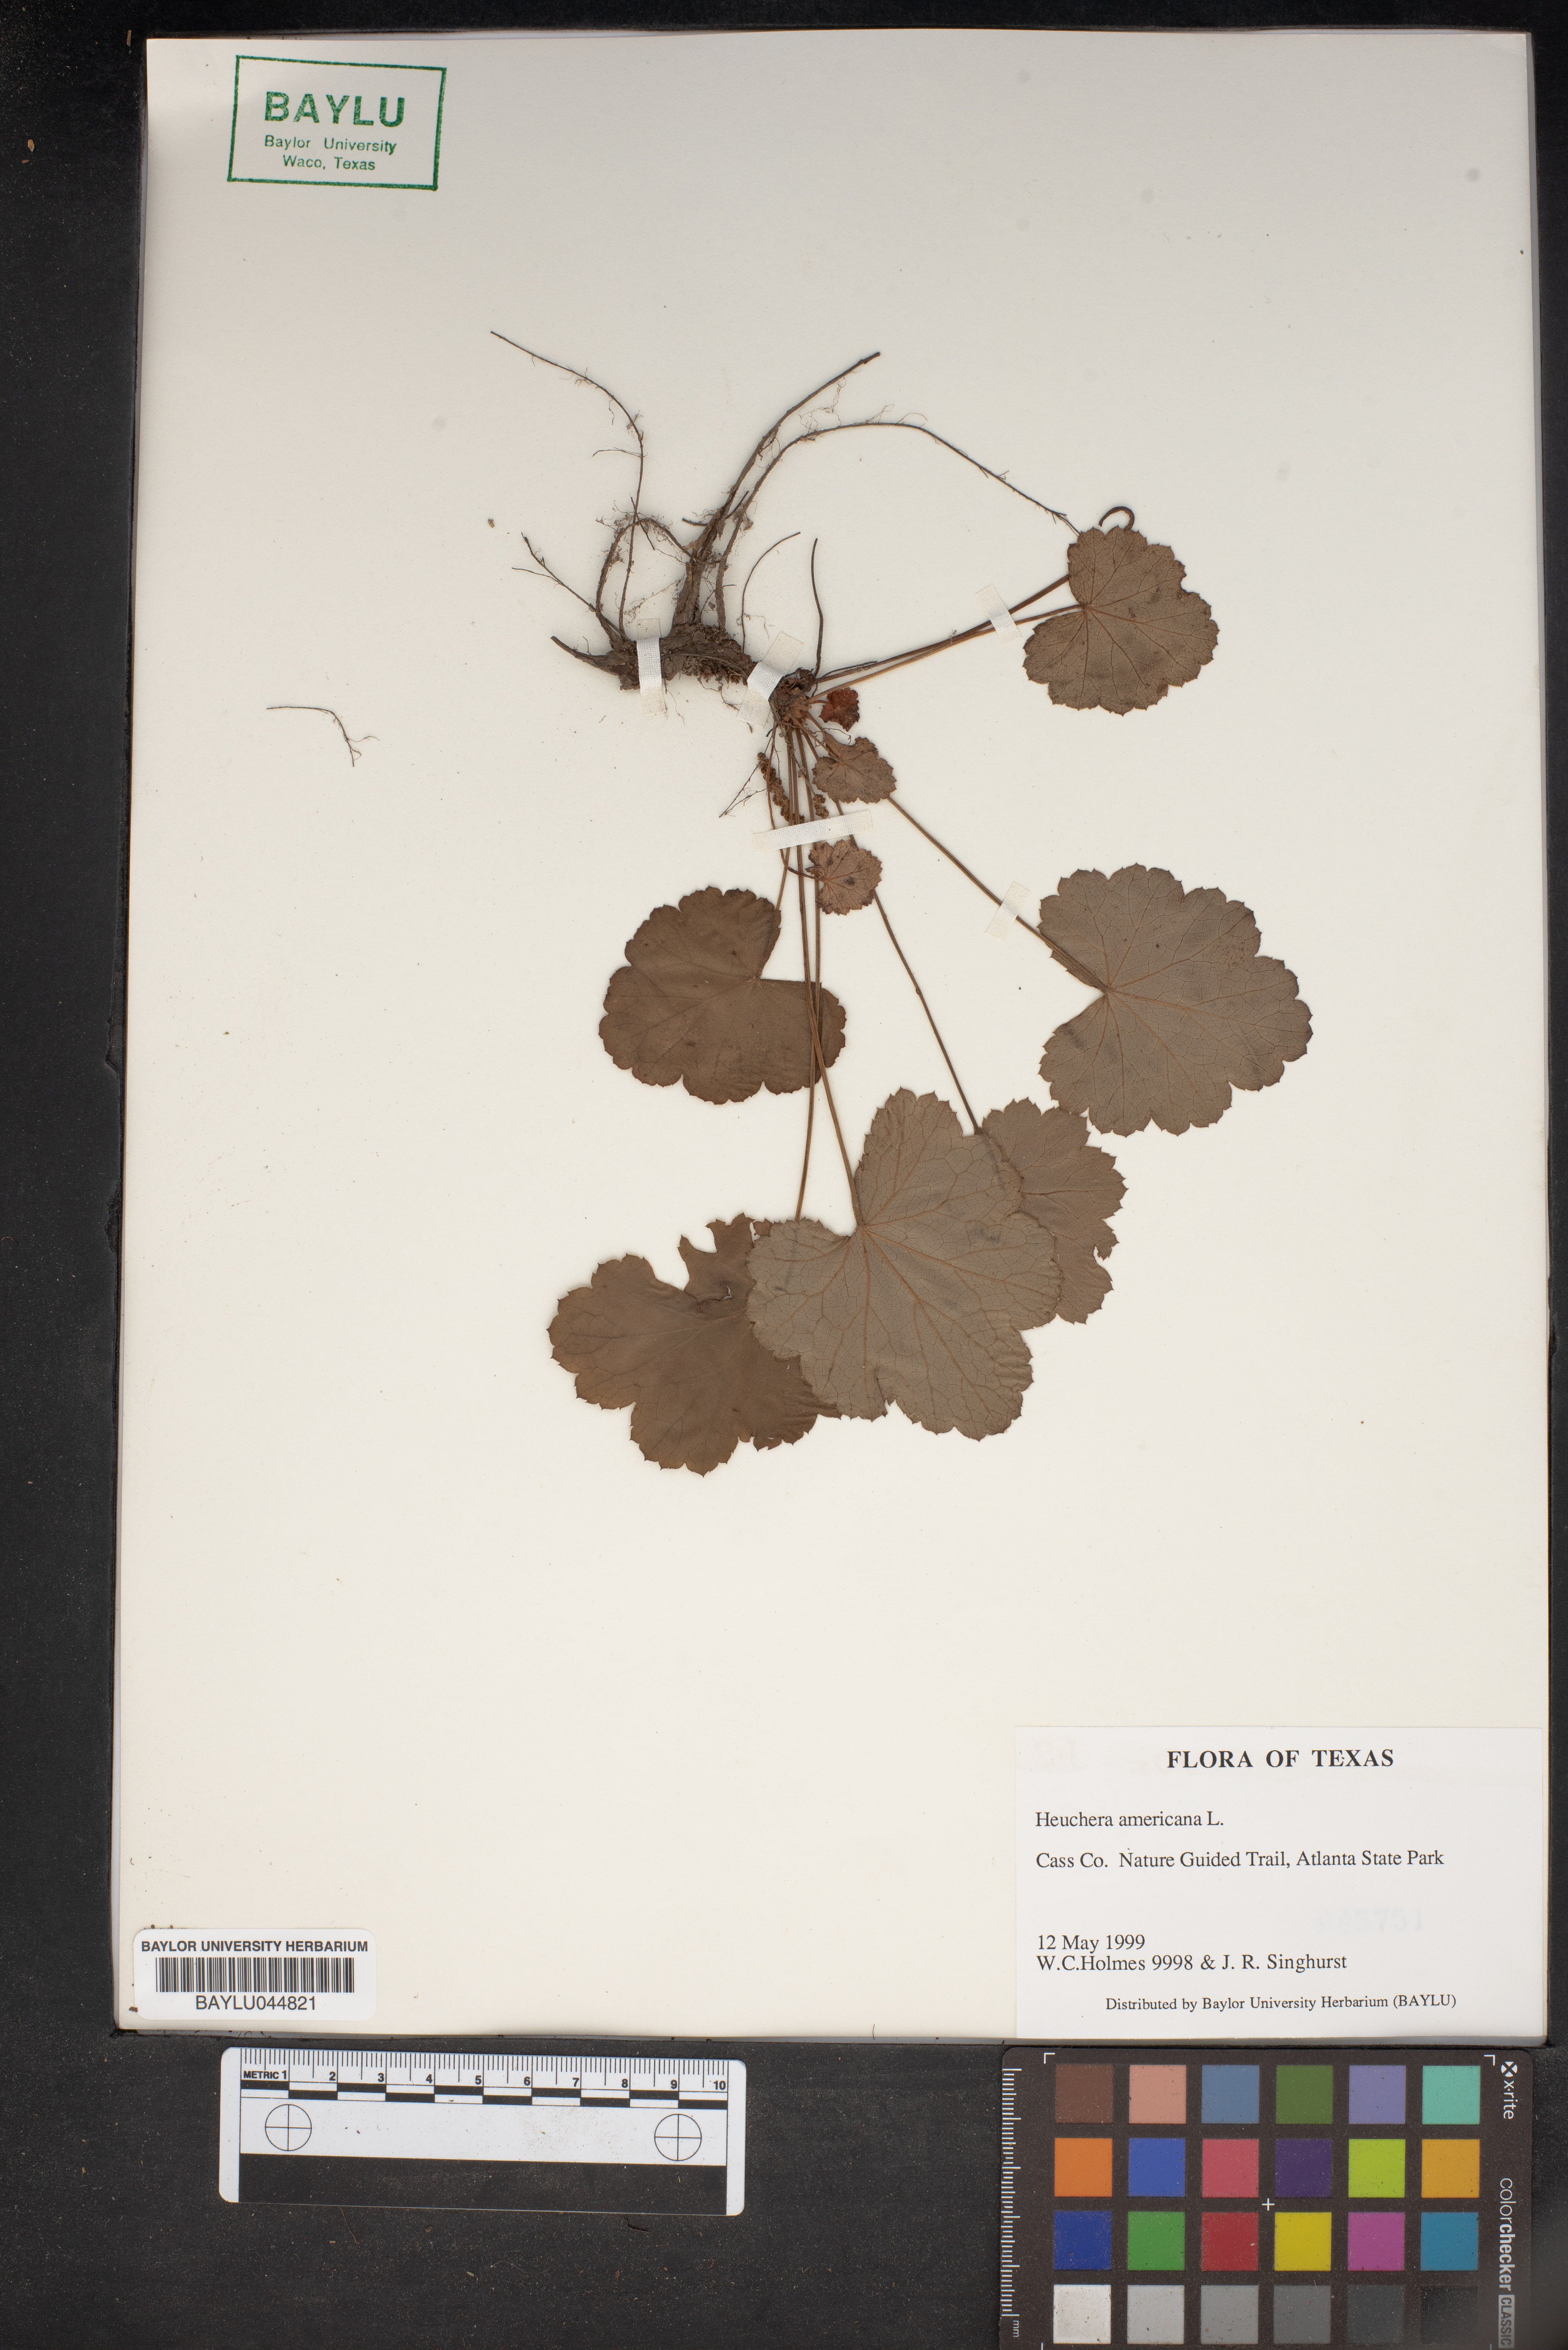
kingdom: Plantae
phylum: Tracheophyta
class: Magnoliopsida
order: Saxifragales
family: Saxifragaceae
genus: Heuchera
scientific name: Heuchera americana
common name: Alumroot
